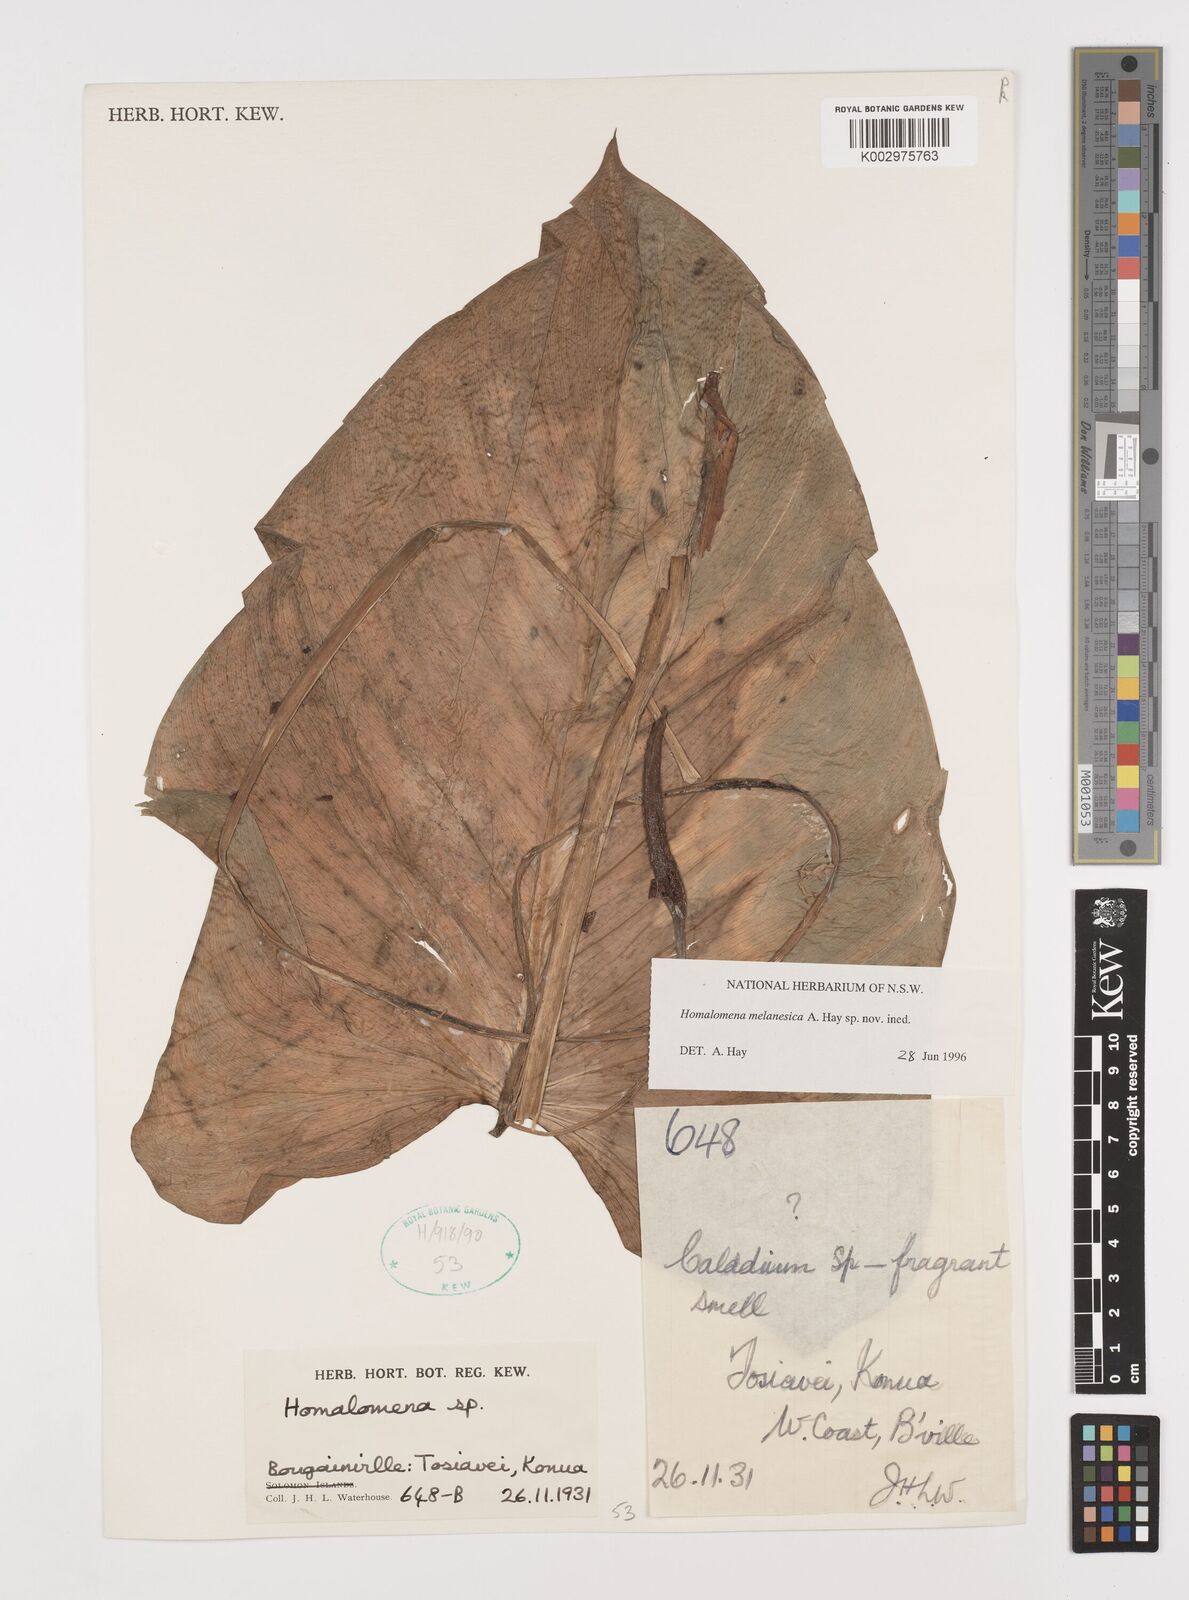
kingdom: Plantae
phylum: Tracheophyta
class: Liliopsida
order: Alismatales
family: Araceae
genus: Homalomena
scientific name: Homalomena melanesica
